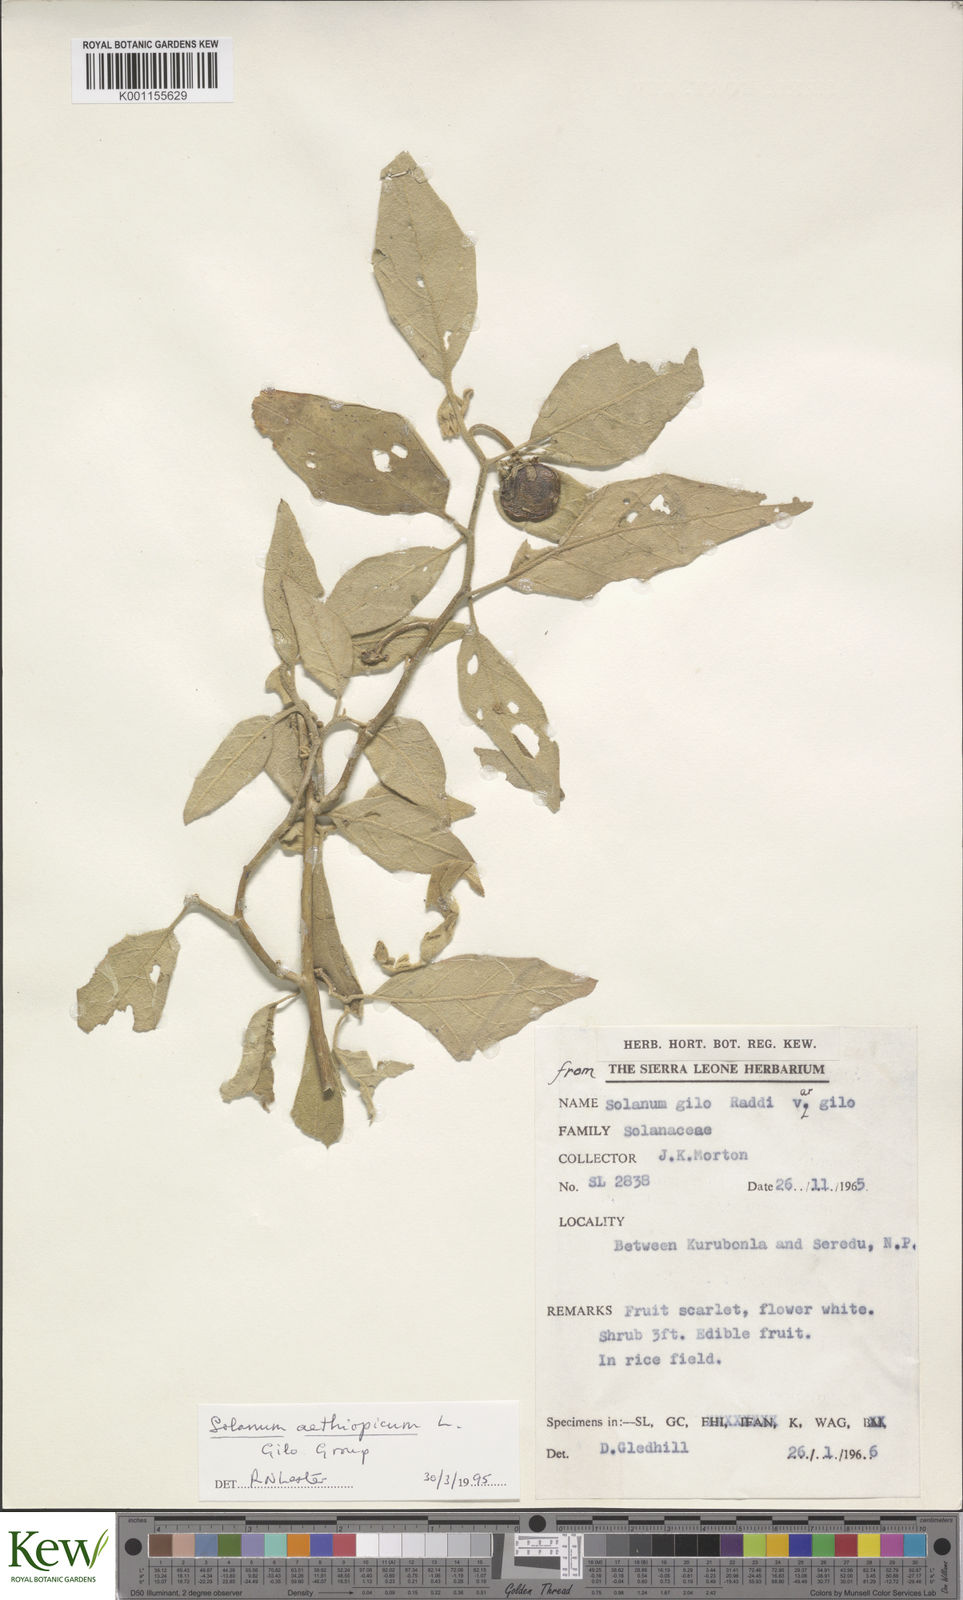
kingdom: Plantae
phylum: Tracheophyta
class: Magnoliopsida
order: Solanales
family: Solanaceae
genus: Solanum
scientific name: Solanum aethiopicum
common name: Gilo
